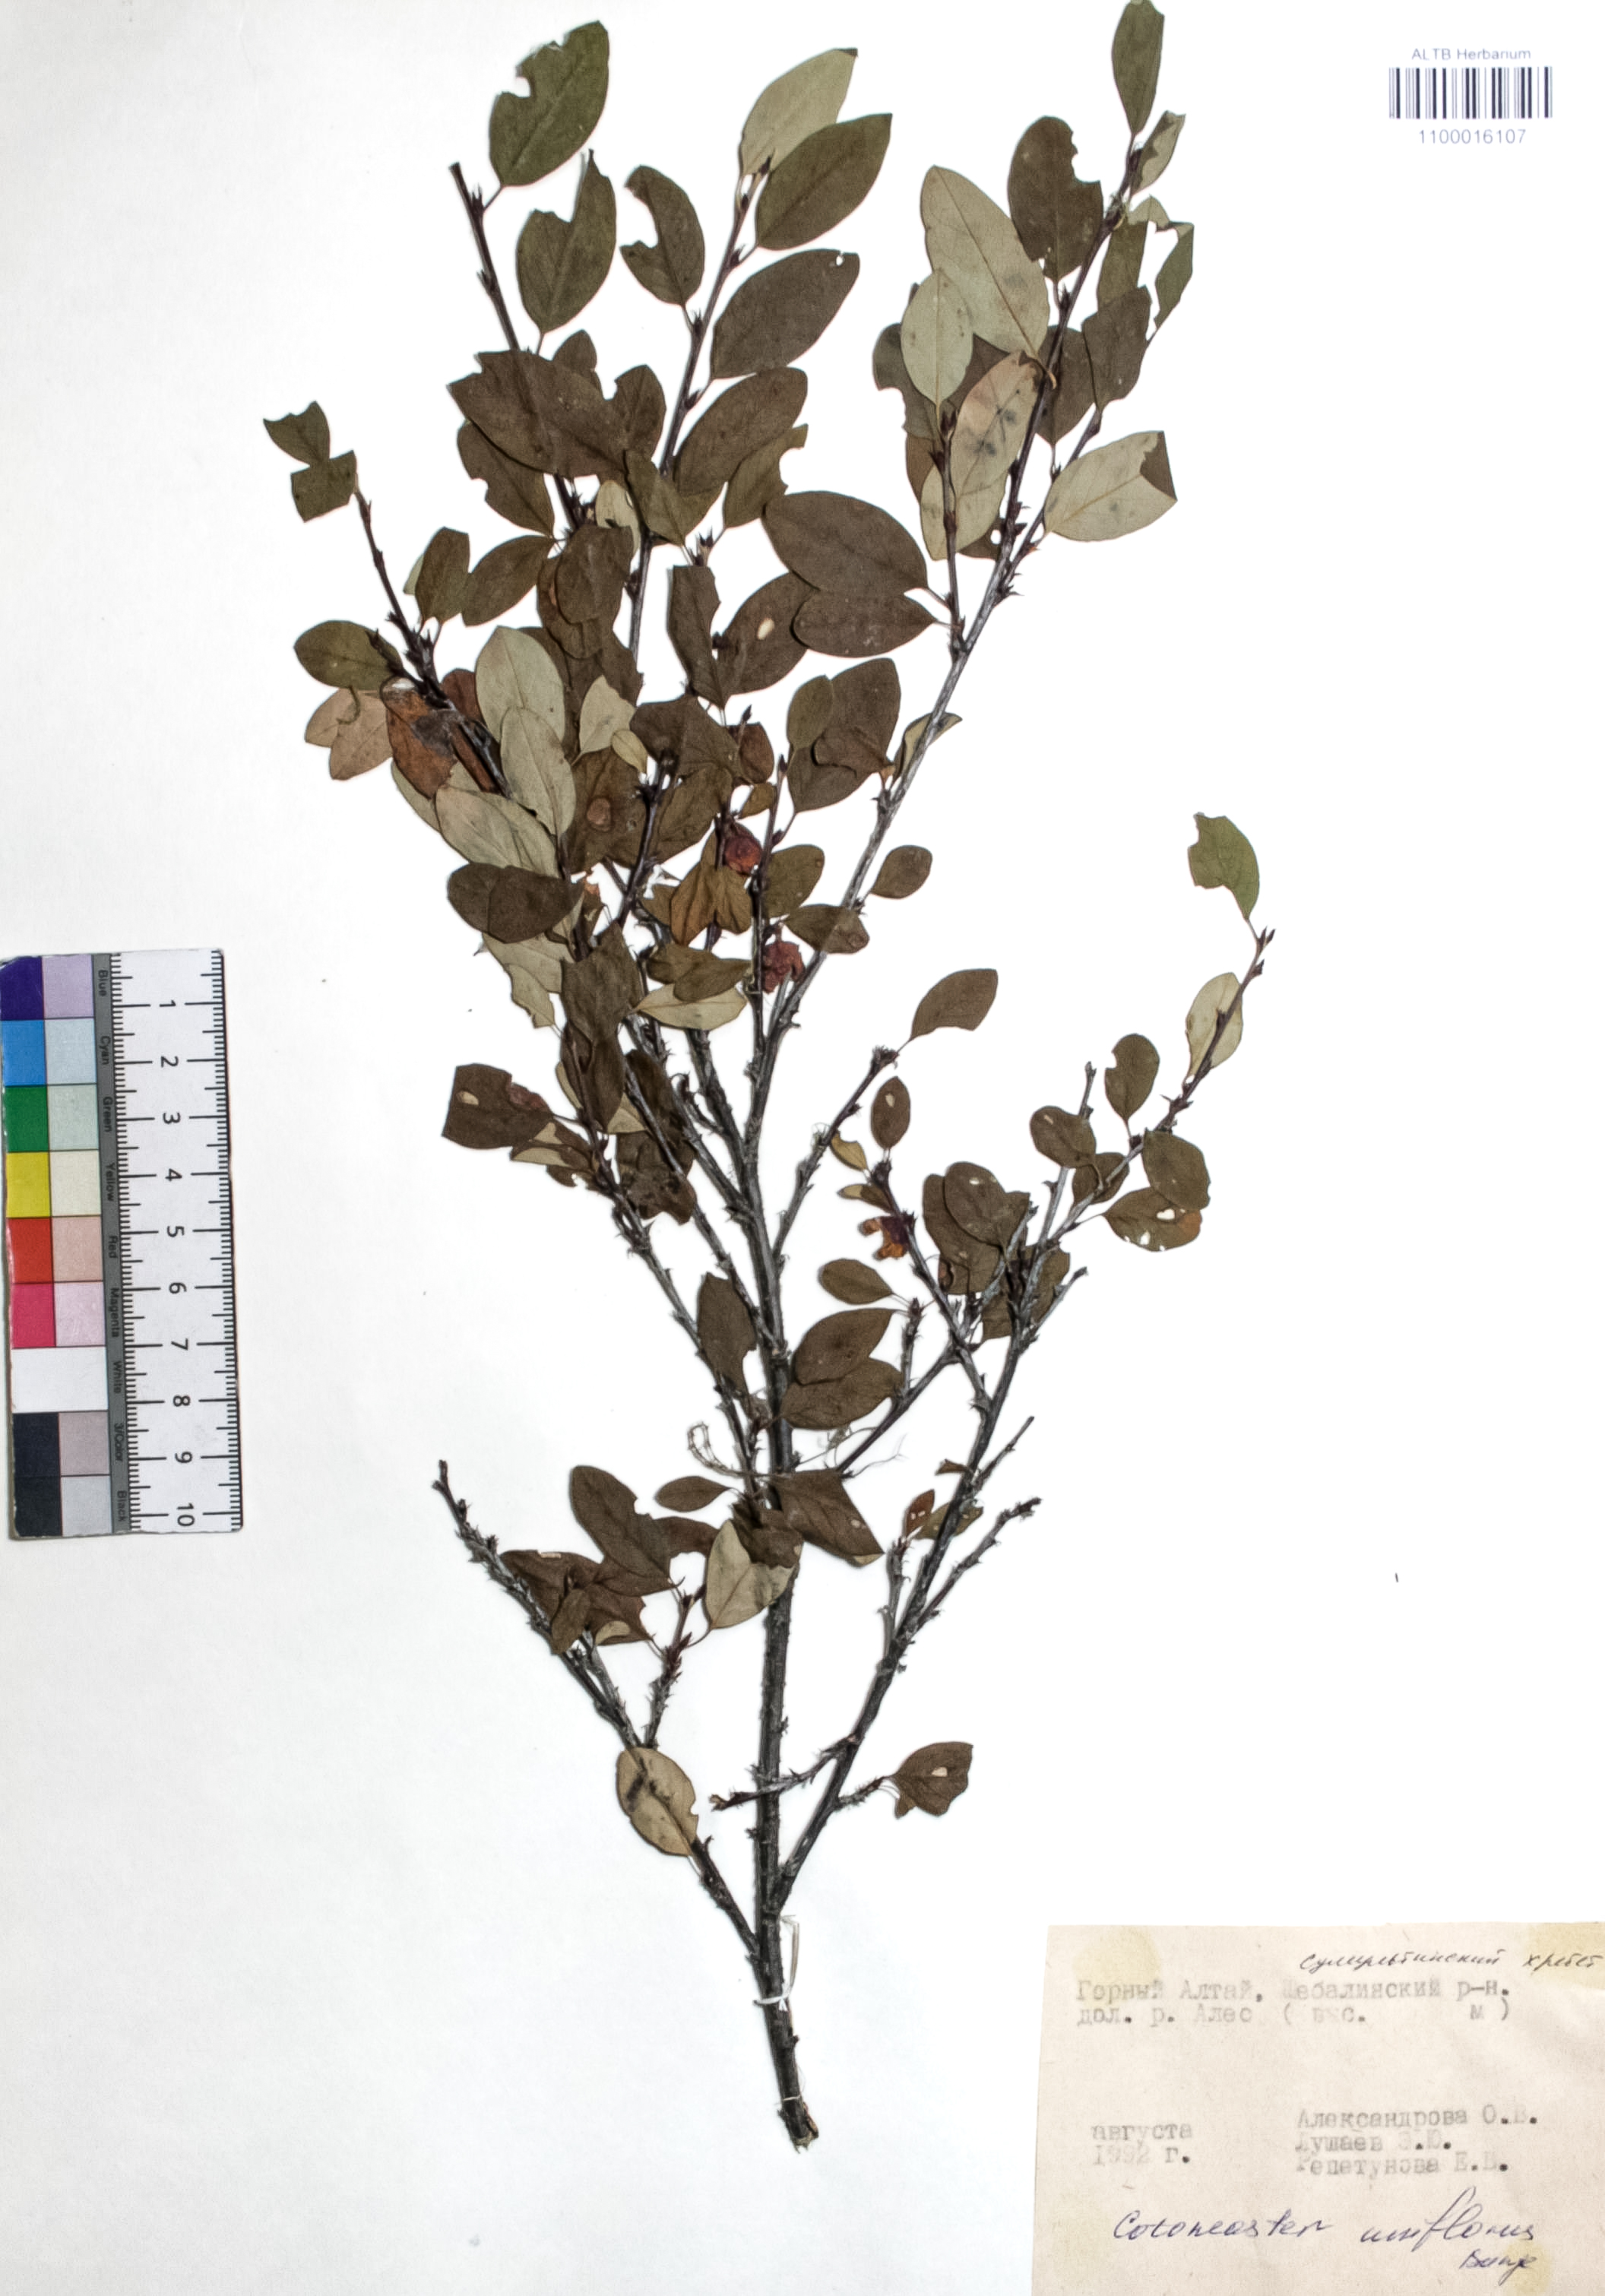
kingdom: Plantae
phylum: Tracheophyta
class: Magnoliopsida
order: Rosales
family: Rosaceae
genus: Cotoneaster
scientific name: Cotoneaster uniflorus
